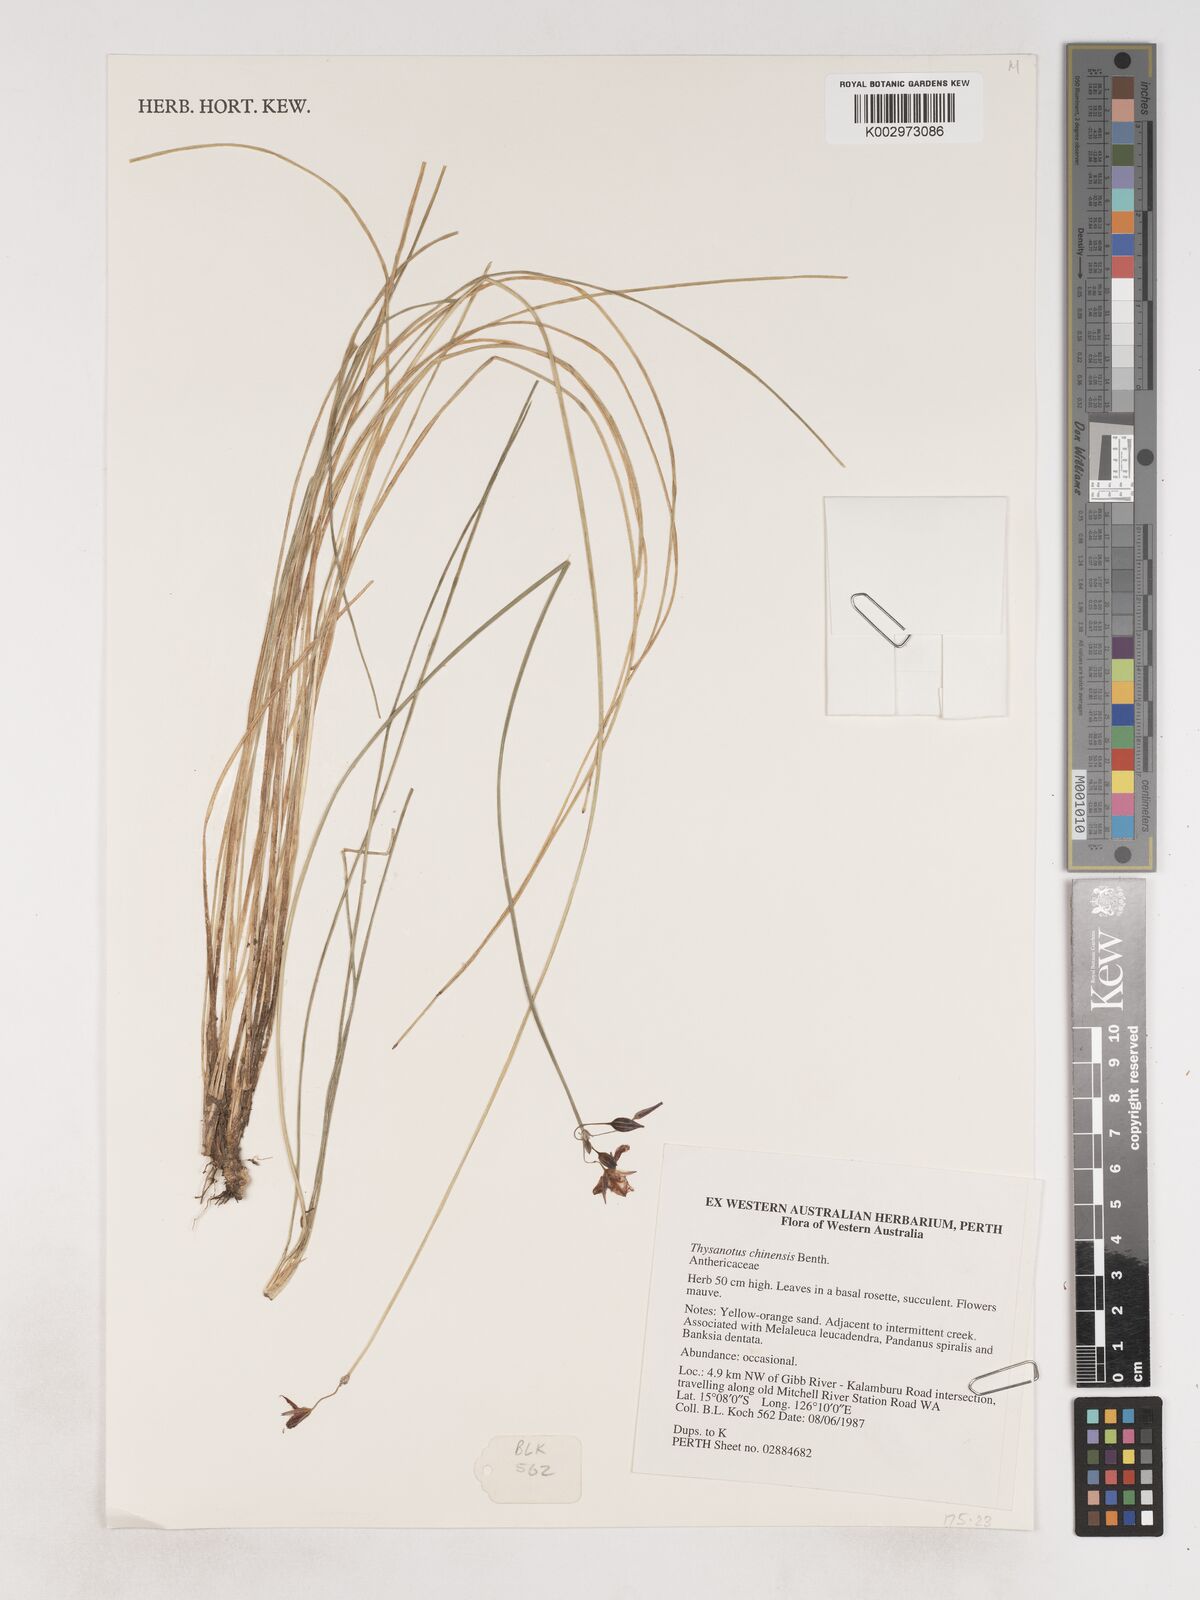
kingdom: Plantae
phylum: Tracheophyta
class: Liliopsida
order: Asparagales
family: Asparagaceae
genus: Thysanotus
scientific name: Thysanotus chinensis
